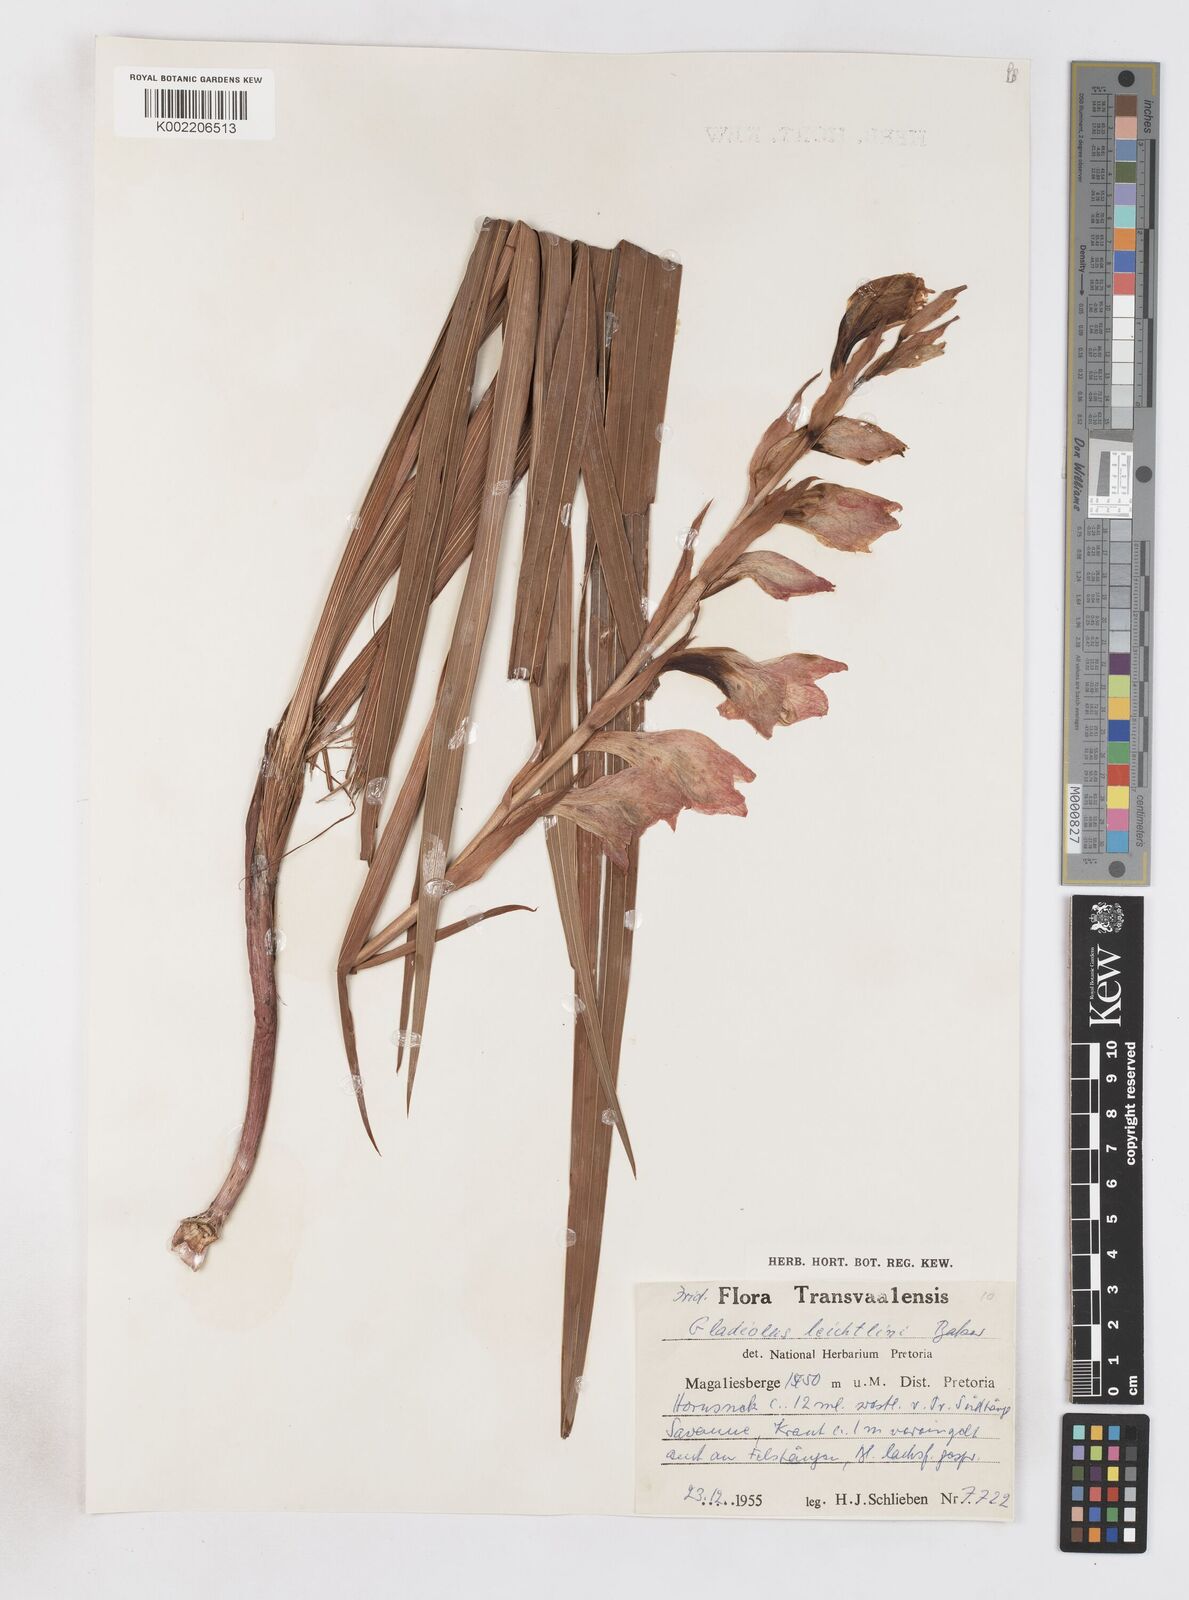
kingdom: Plantae
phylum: Tracheophyta
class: Liliopsida
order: Asparagales
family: Iridaceae
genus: Gladiolus
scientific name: Gladiolus dalenii
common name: Cornflag
